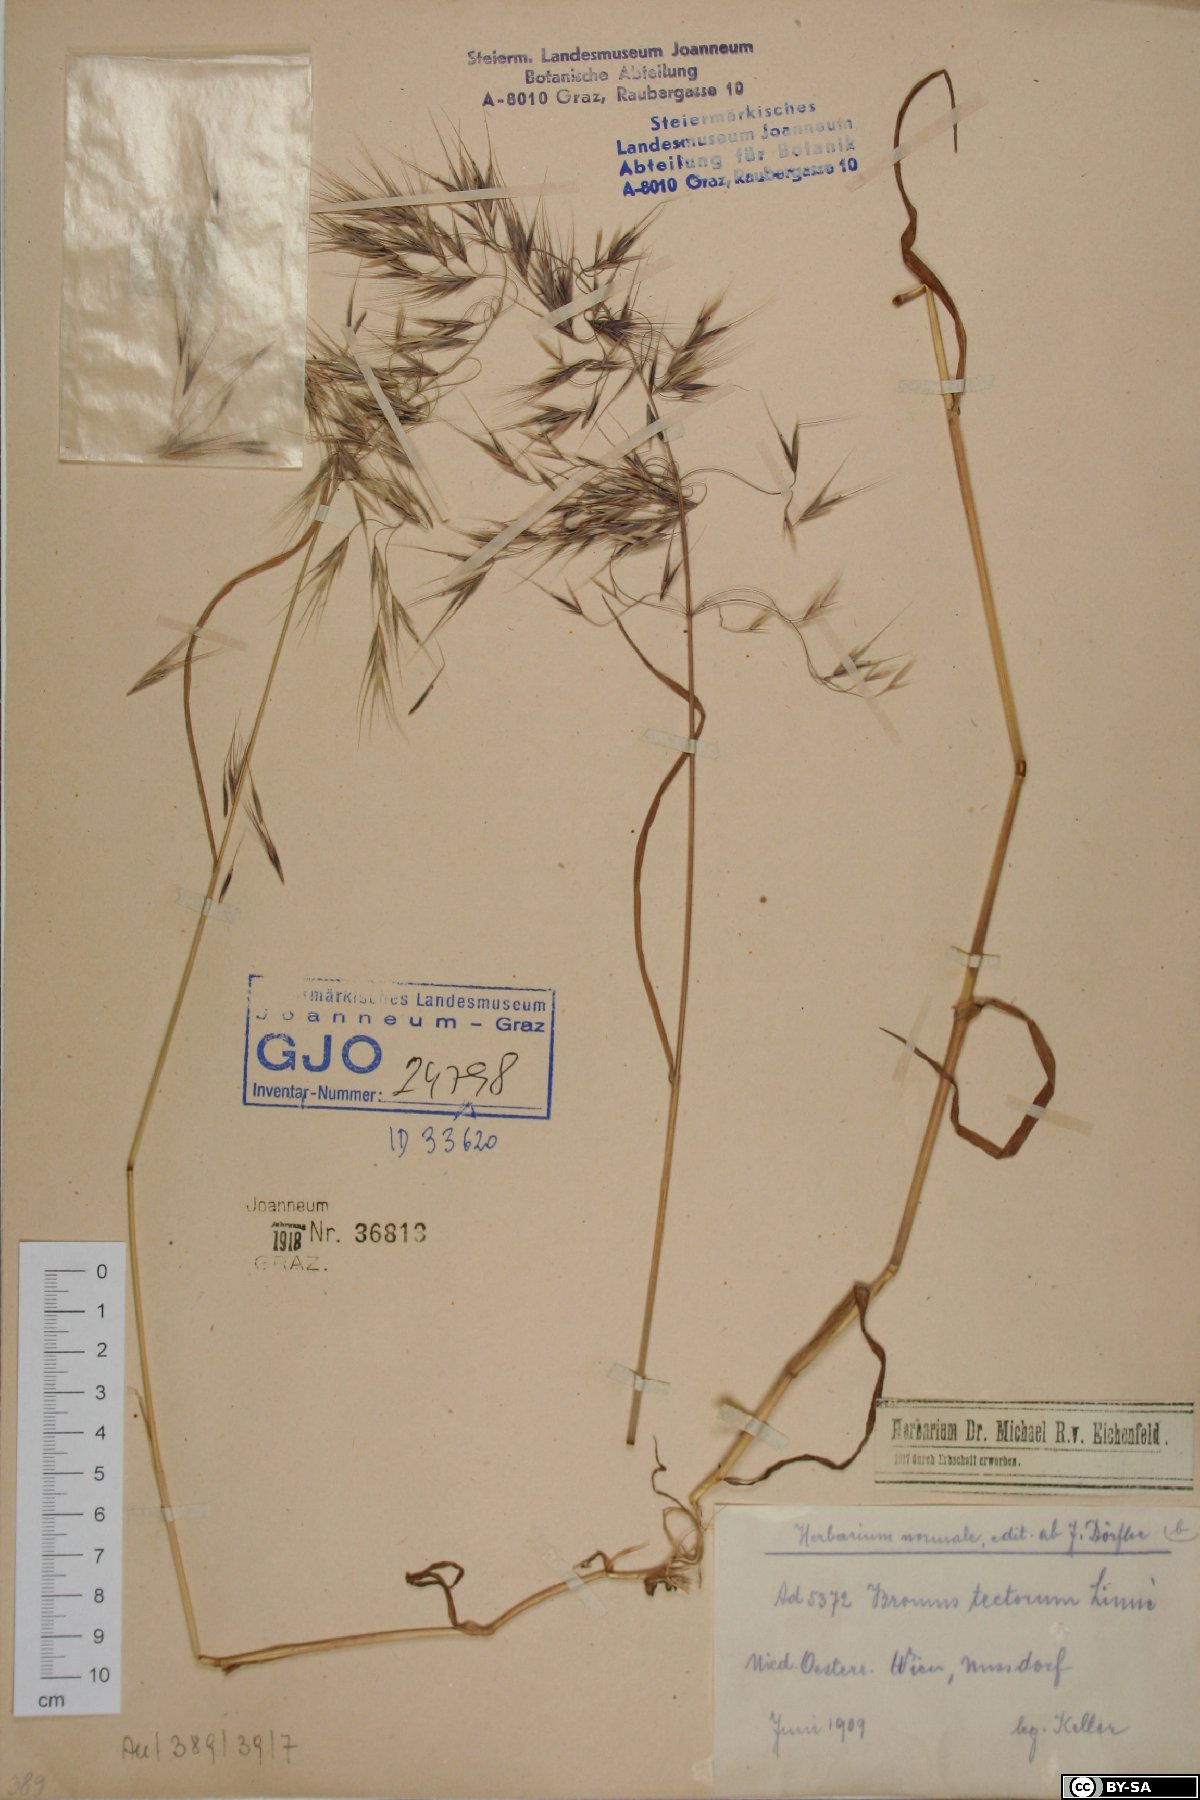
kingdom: Plantae
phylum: Tracheophyta
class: Liliopsida
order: Poales
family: Poaceae
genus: Bromus
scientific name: Bromus tectorum
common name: Cheatgrass
